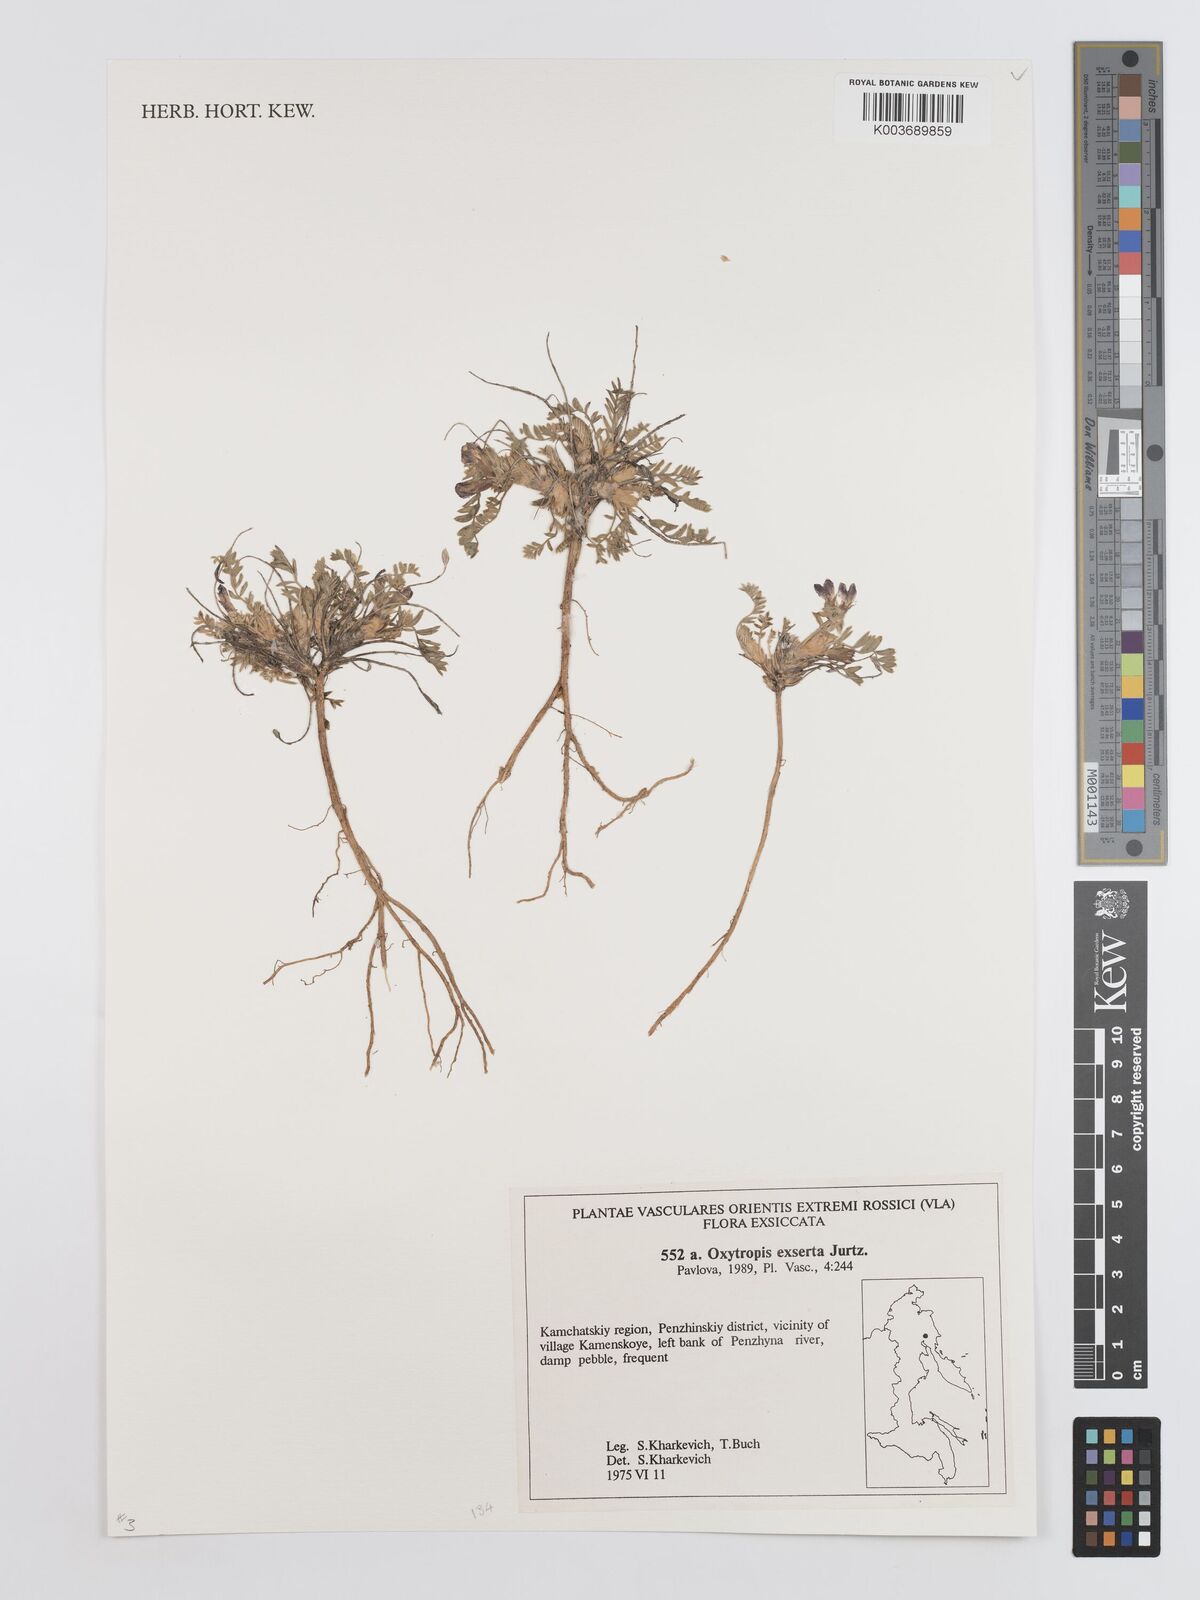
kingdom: Plantae
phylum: Tracheophyta
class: Magnoliopsida
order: Fabales
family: Fabaceae
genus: Oxytropis
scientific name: Oxytropis exserta
